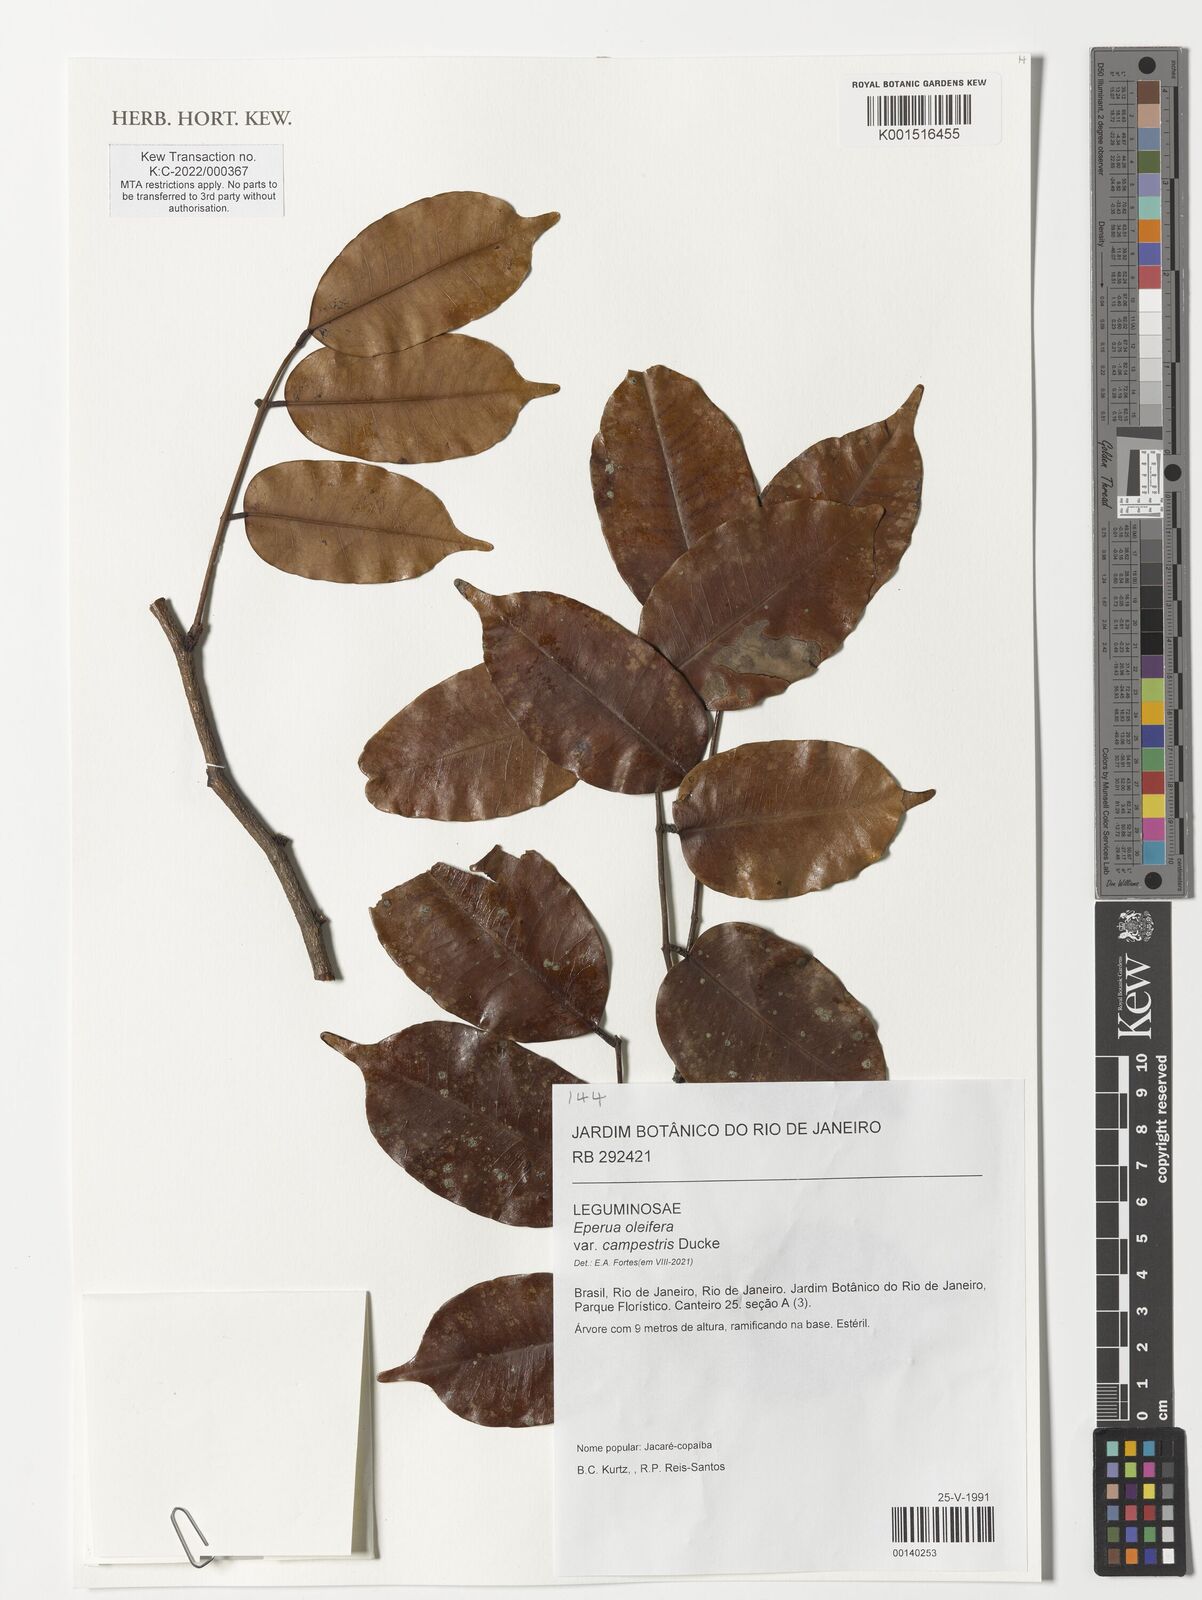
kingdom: Plantae
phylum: Tracheophyta
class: Magnoliopsida
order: Fabales
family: Fabaceae
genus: Eperua
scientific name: Eperua oleifera
